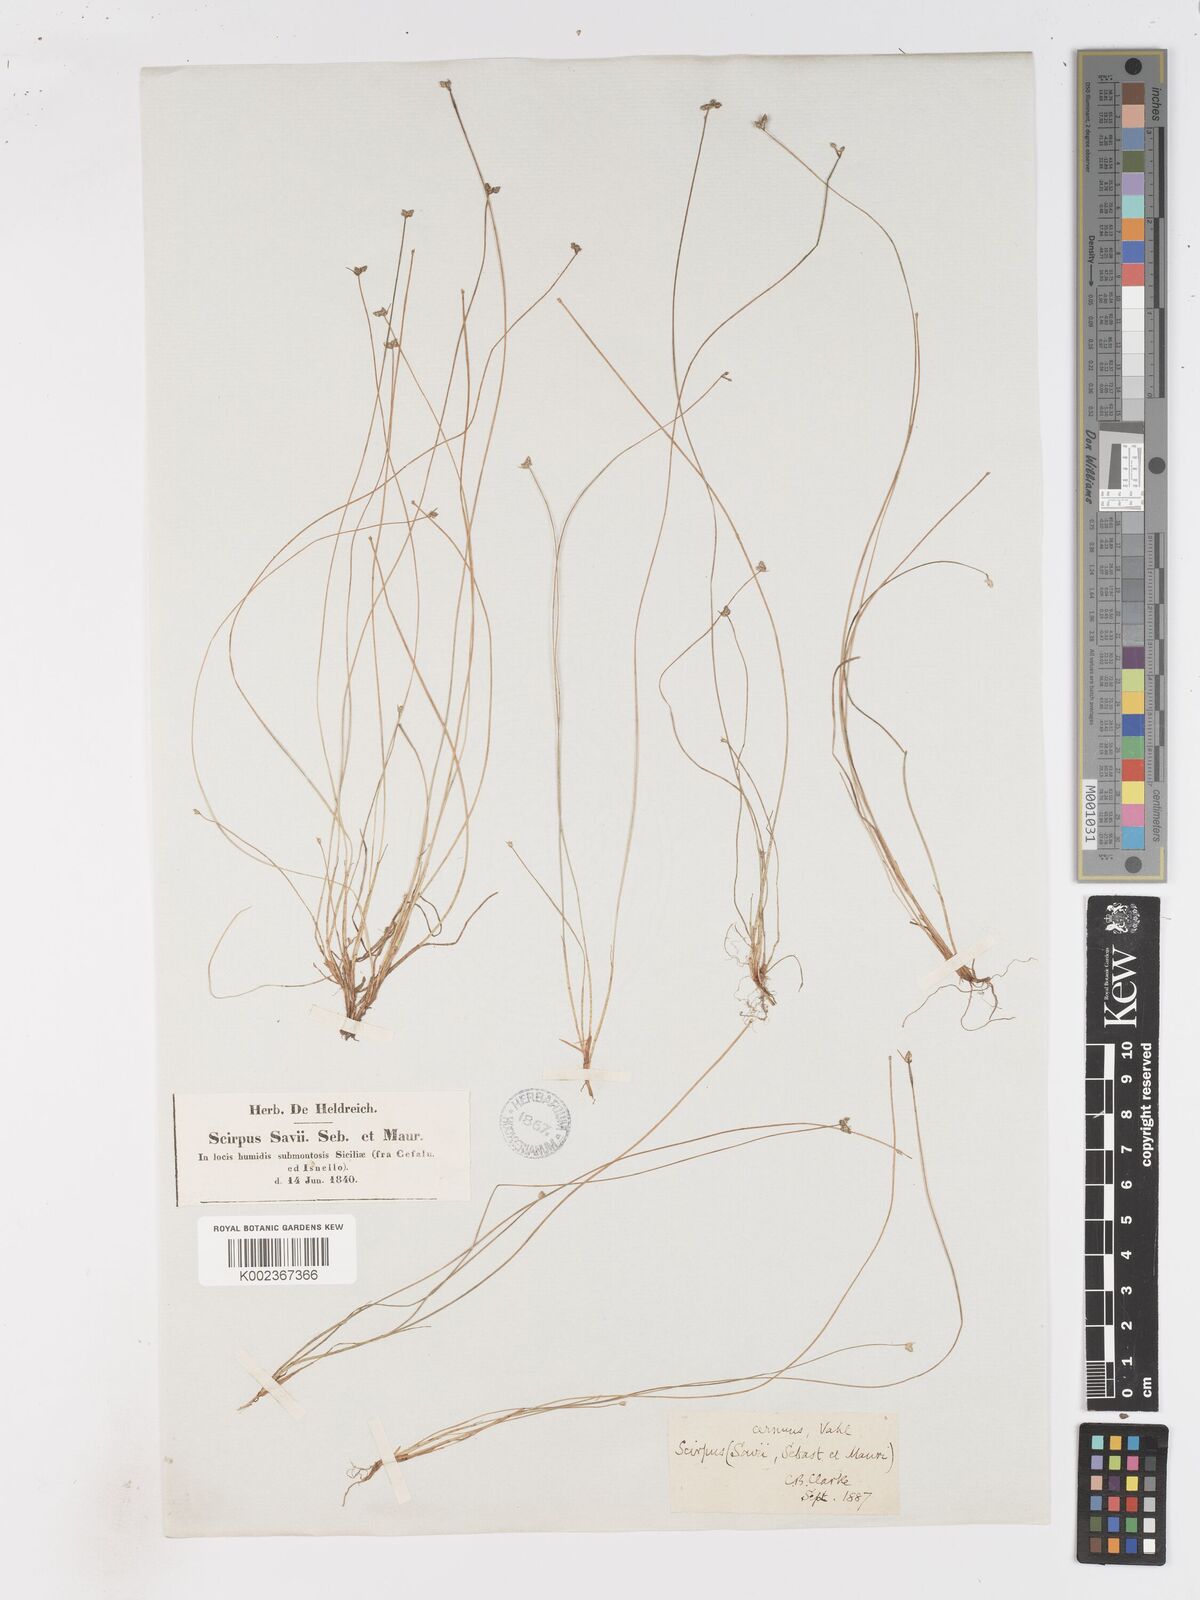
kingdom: Plantae
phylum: Tracheophyta
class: Liliopsida
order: Poales
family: Cyperaceae
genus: Isolepis
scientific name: Isolepis cernua
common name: Slender club-rush
